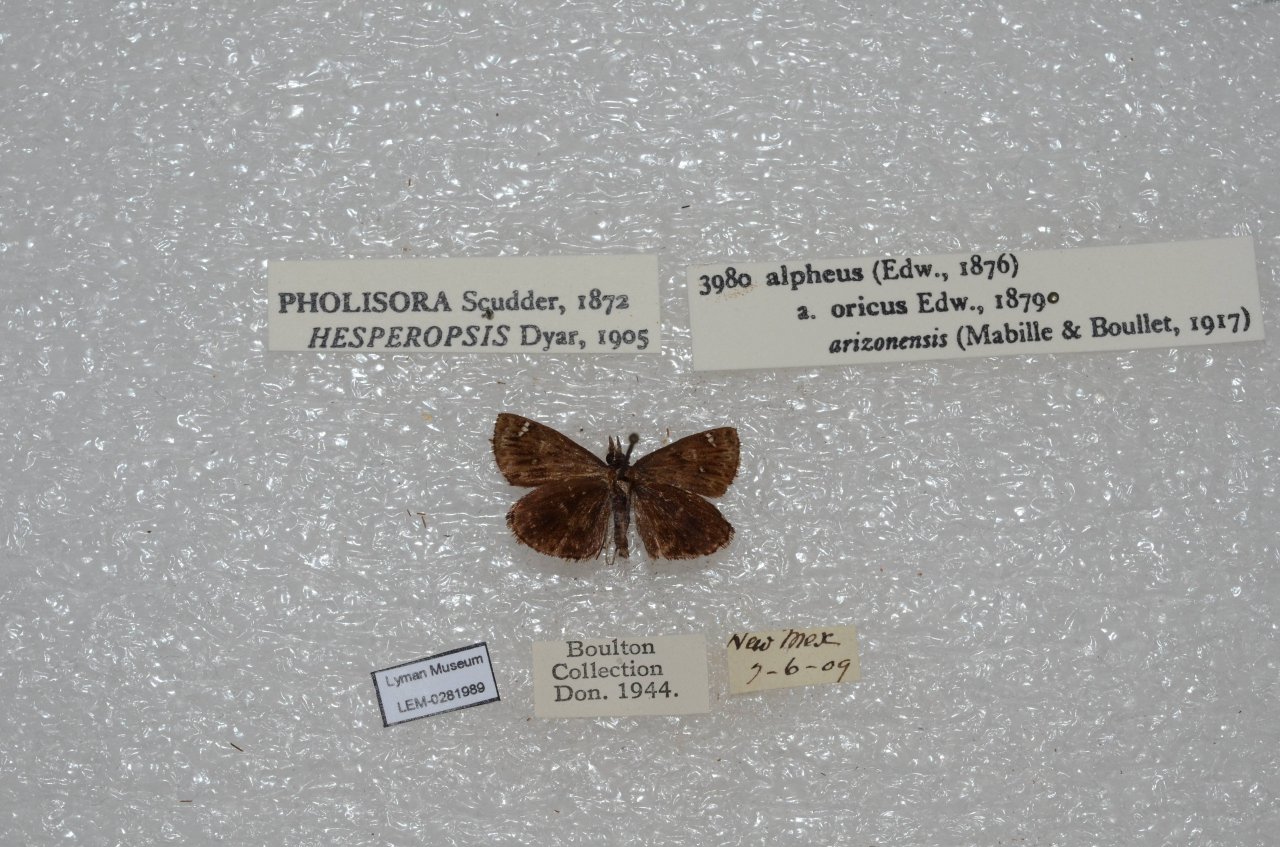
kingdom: Animalia
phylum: Arthropoda
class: Insecta
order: Lepidoptera
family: Hesperiidae
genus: Hesperopsis
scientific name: Hesperopsis alpheus
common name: Saltbush Sootywing
